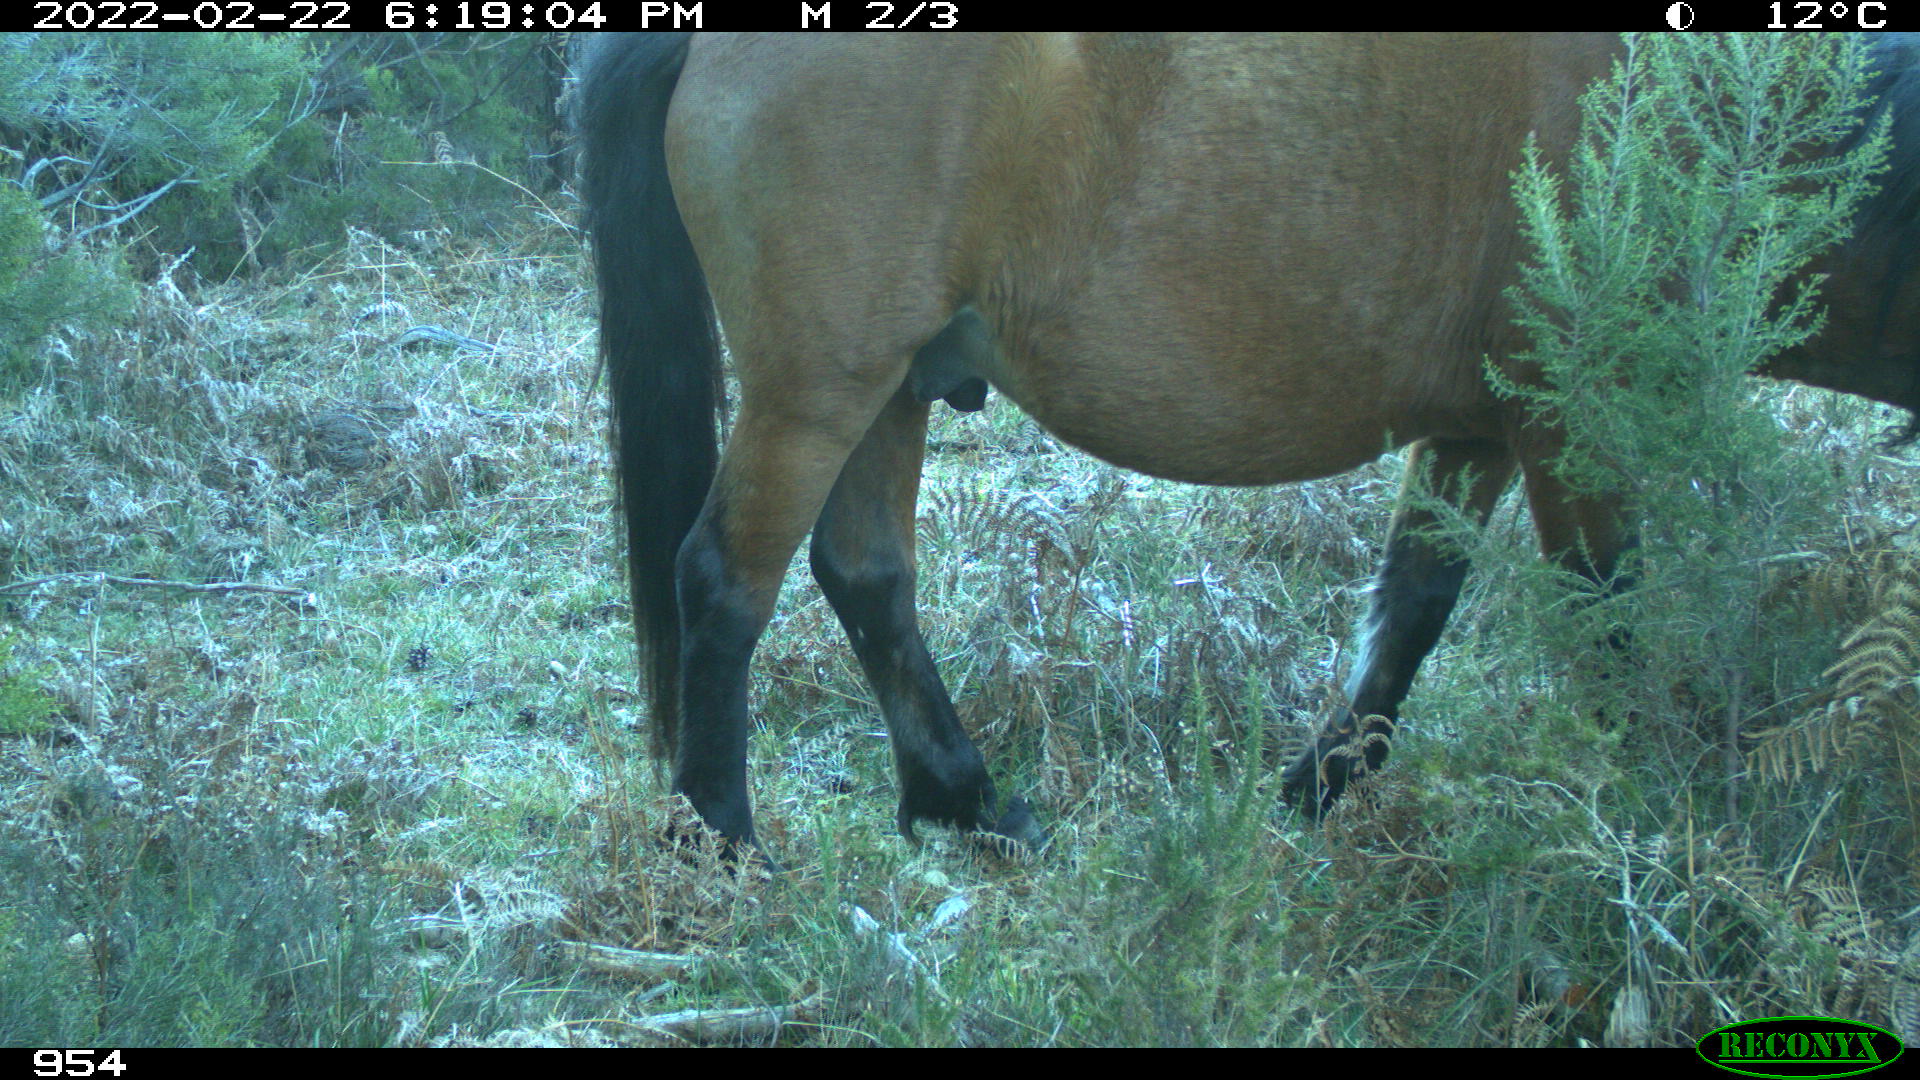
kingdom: Animalia
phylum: Chordata
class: Mammalia
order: Perissodactyla
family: Equidae
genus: Equus
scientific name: Equus caballus
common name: Horse
